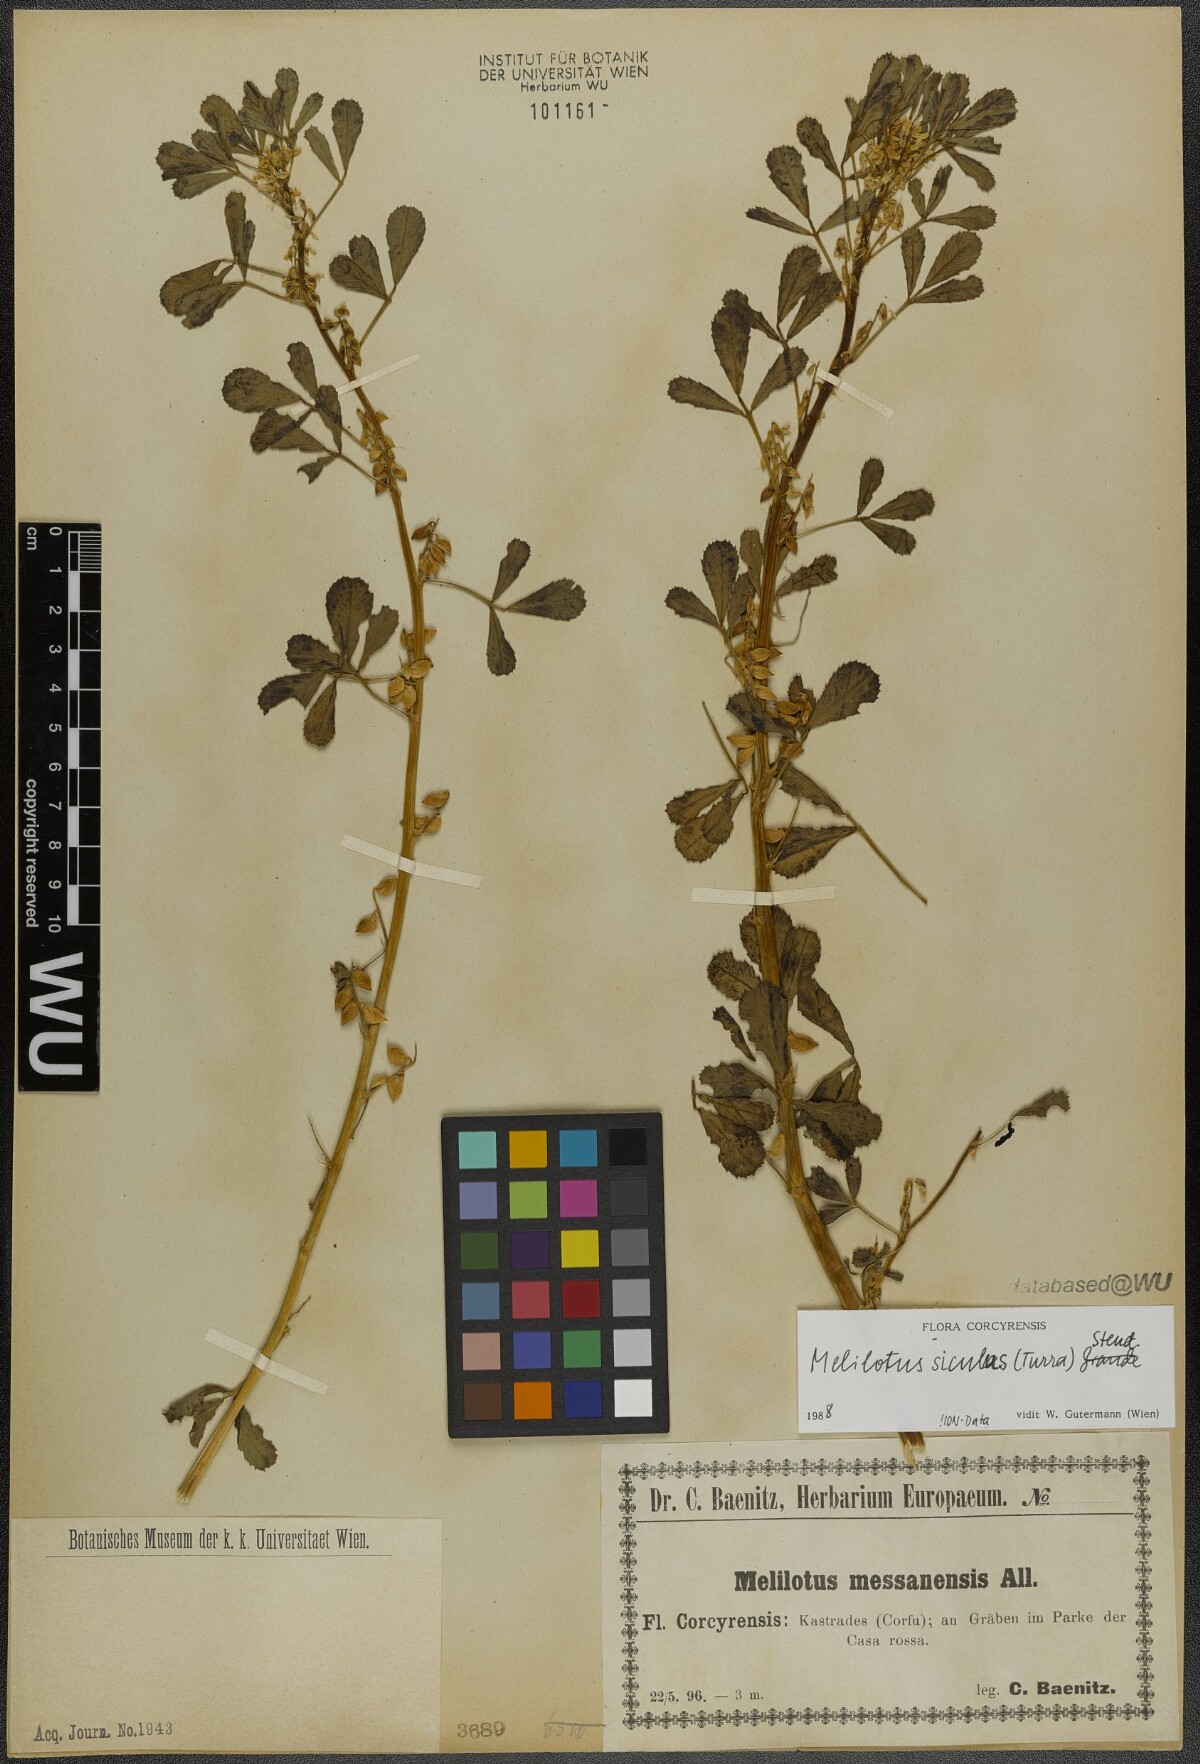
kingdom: Plantae
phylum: Tracheophyta
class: Magnoliopsida
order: Fabales
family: Fabaceae
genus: Melilotus
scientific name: Melilotus siculus
